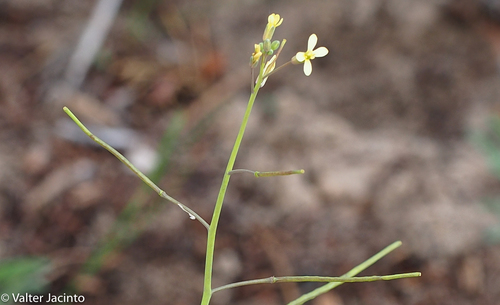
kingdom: Plantae
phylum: Tracheophyta
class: Magnoliopsida
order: Brassicales
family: Brassicaceae
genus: Brassica
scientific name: Brassica barrelieri
